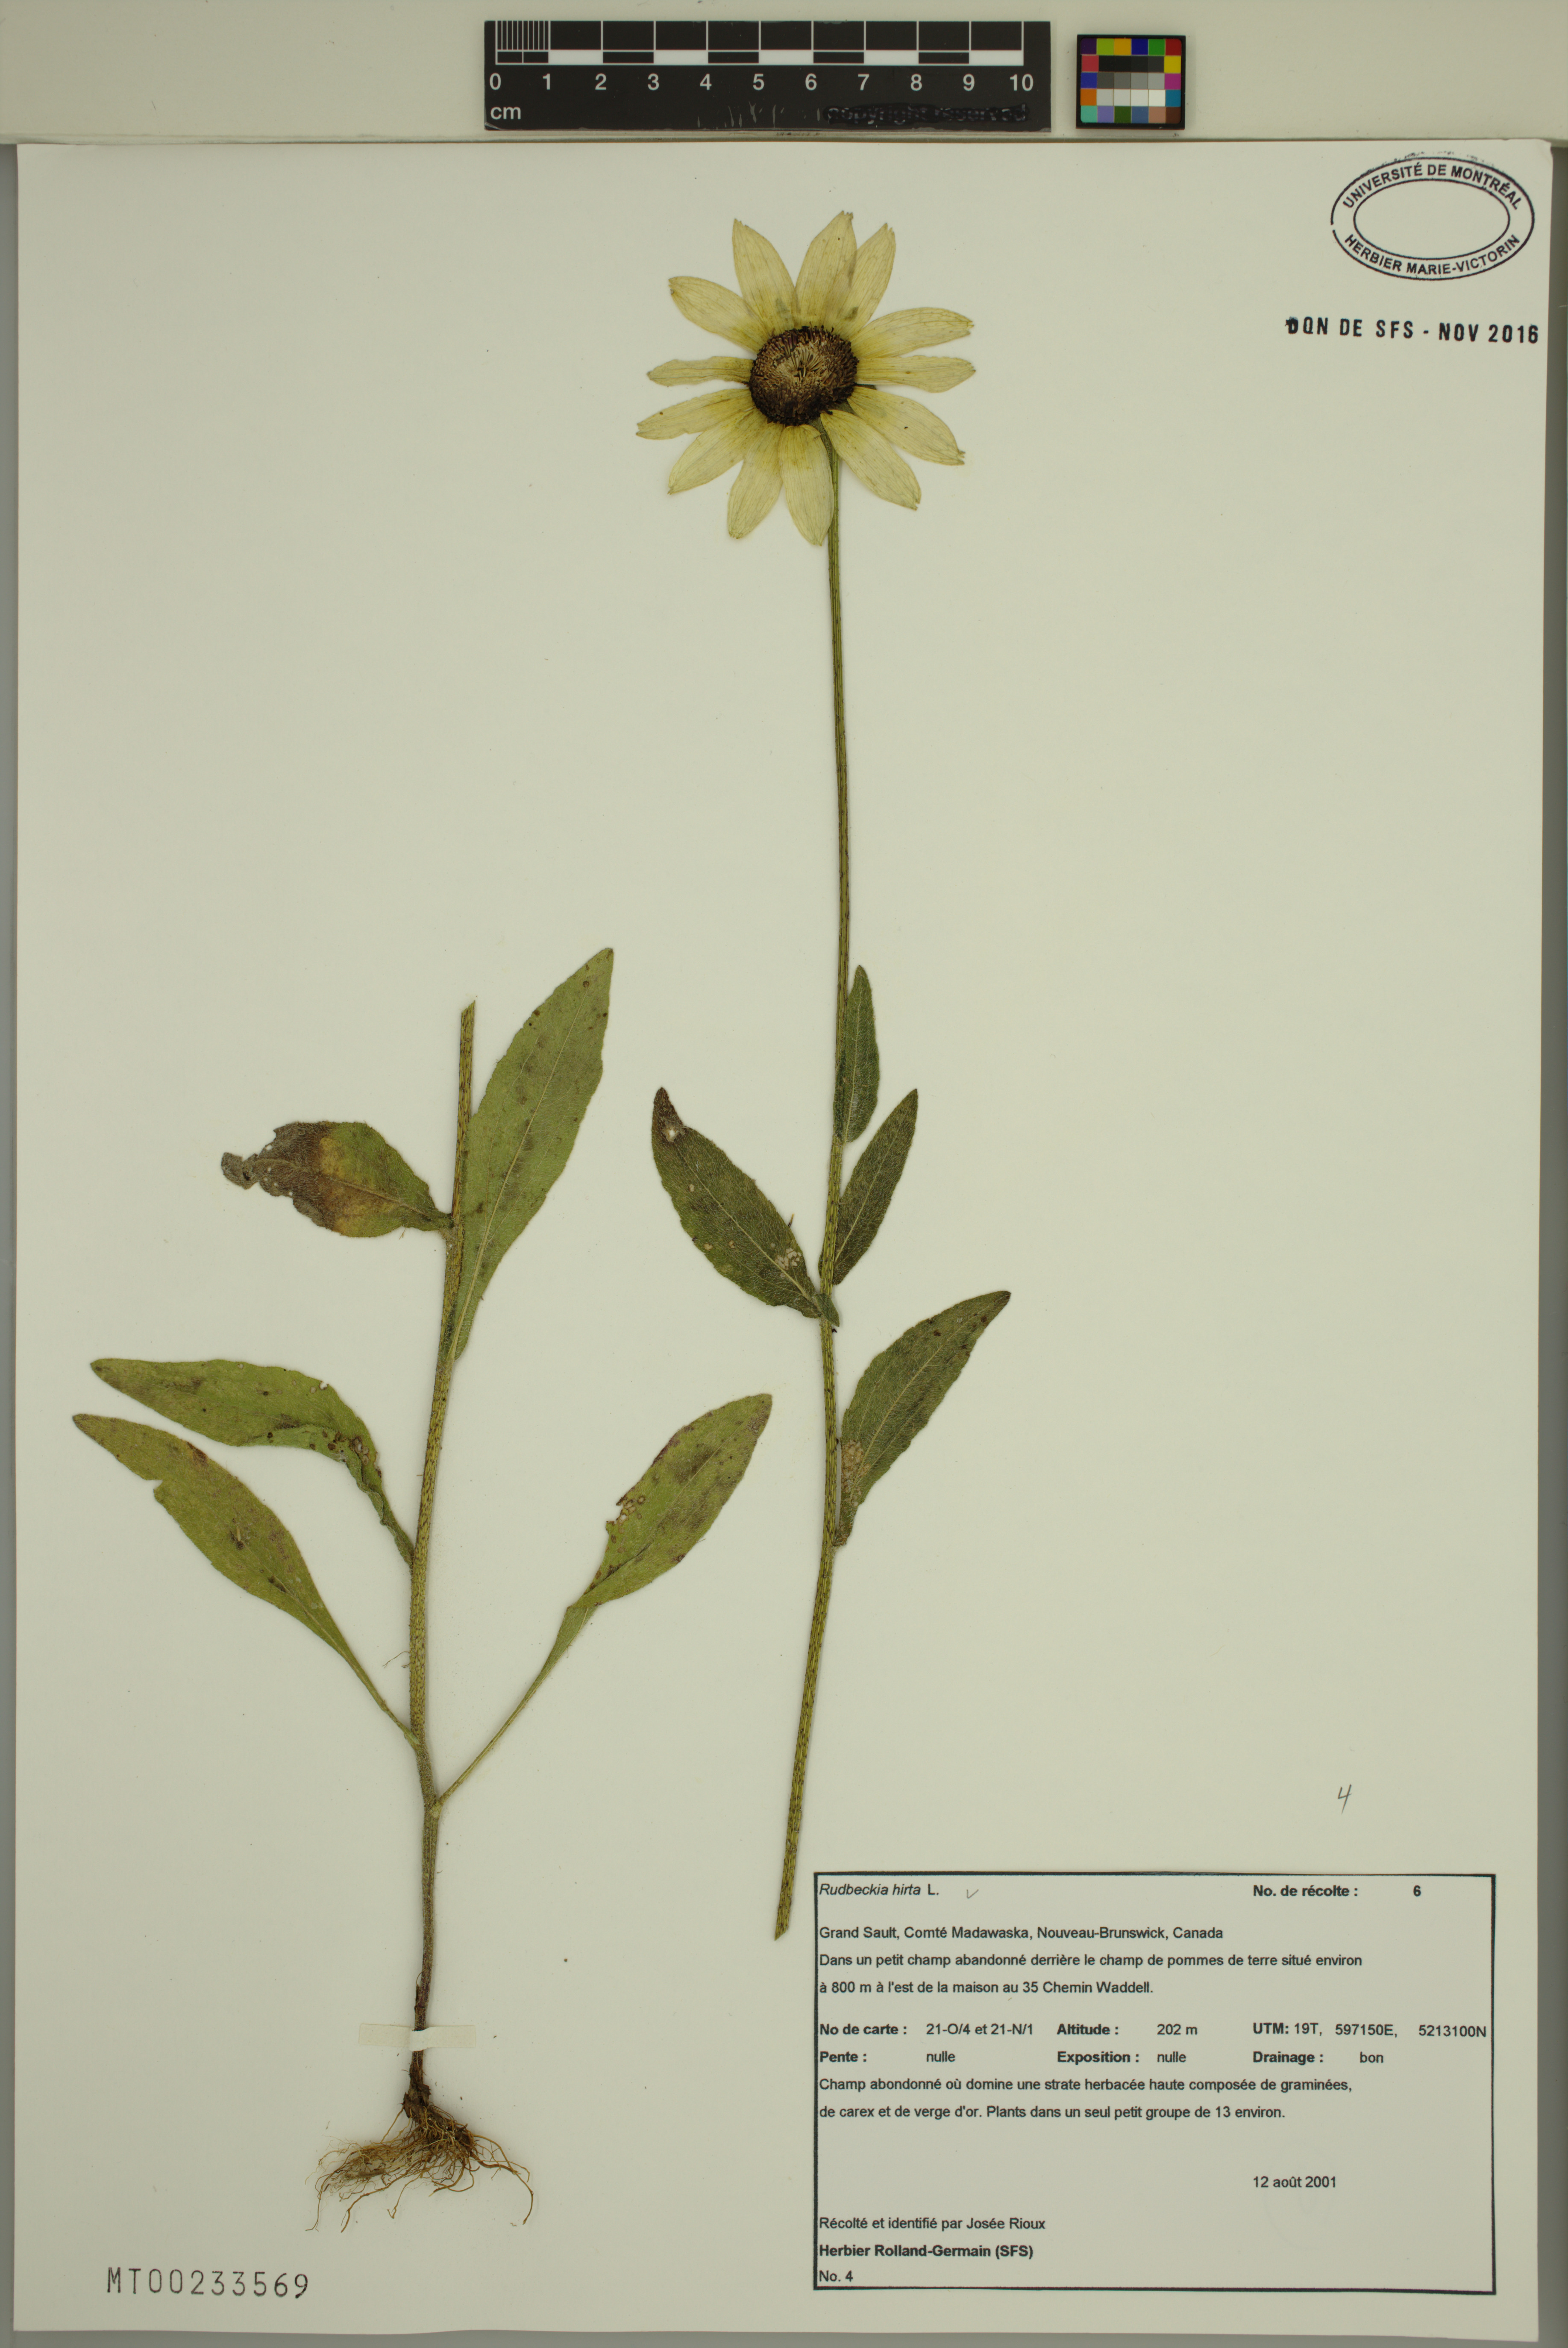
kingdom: Plantae
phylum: Tracheophyta
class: Magnoliopsida
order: Asterales
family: Asteraceae
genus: Rudbeckia
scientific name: Rudbeckia hirta
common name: Black-eyed-susan
